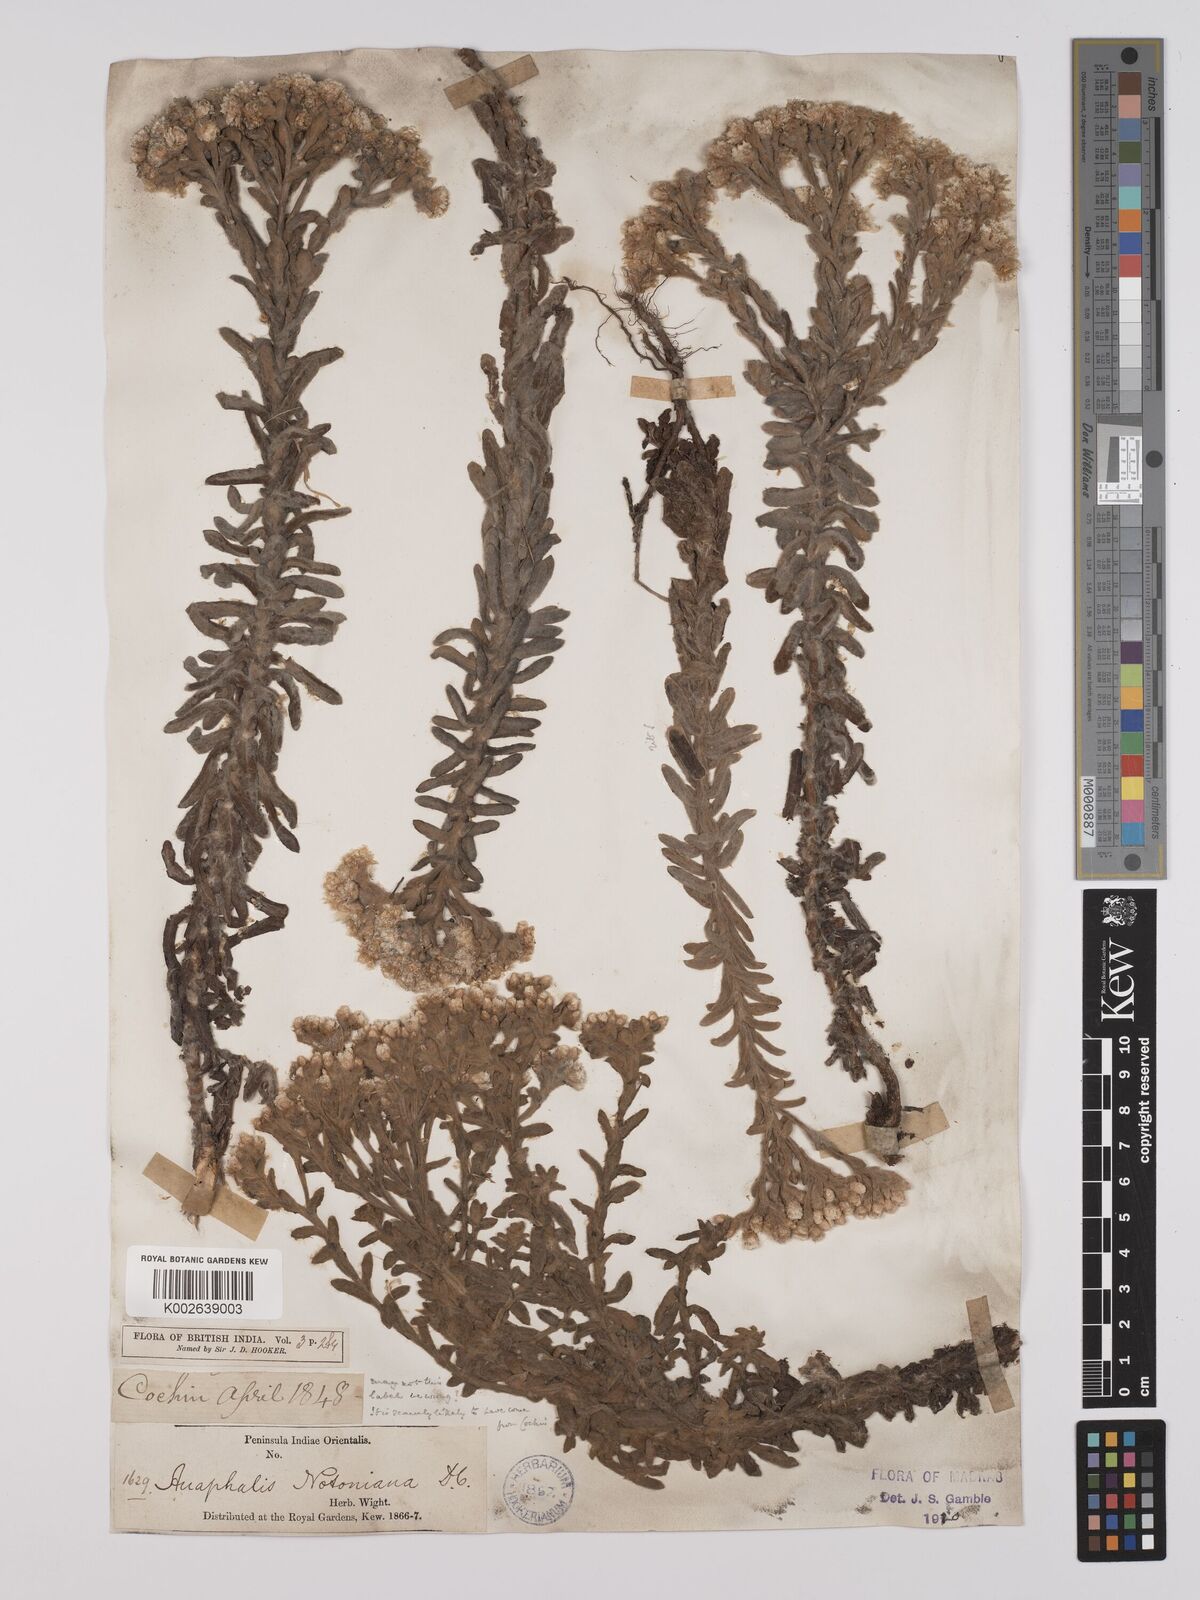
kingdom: Plantae
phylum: Tracheophyta
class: Magnoliopsida
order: Asterales
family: Asteraceae
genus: Anaphalis
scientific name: Anaphalis notoniana
